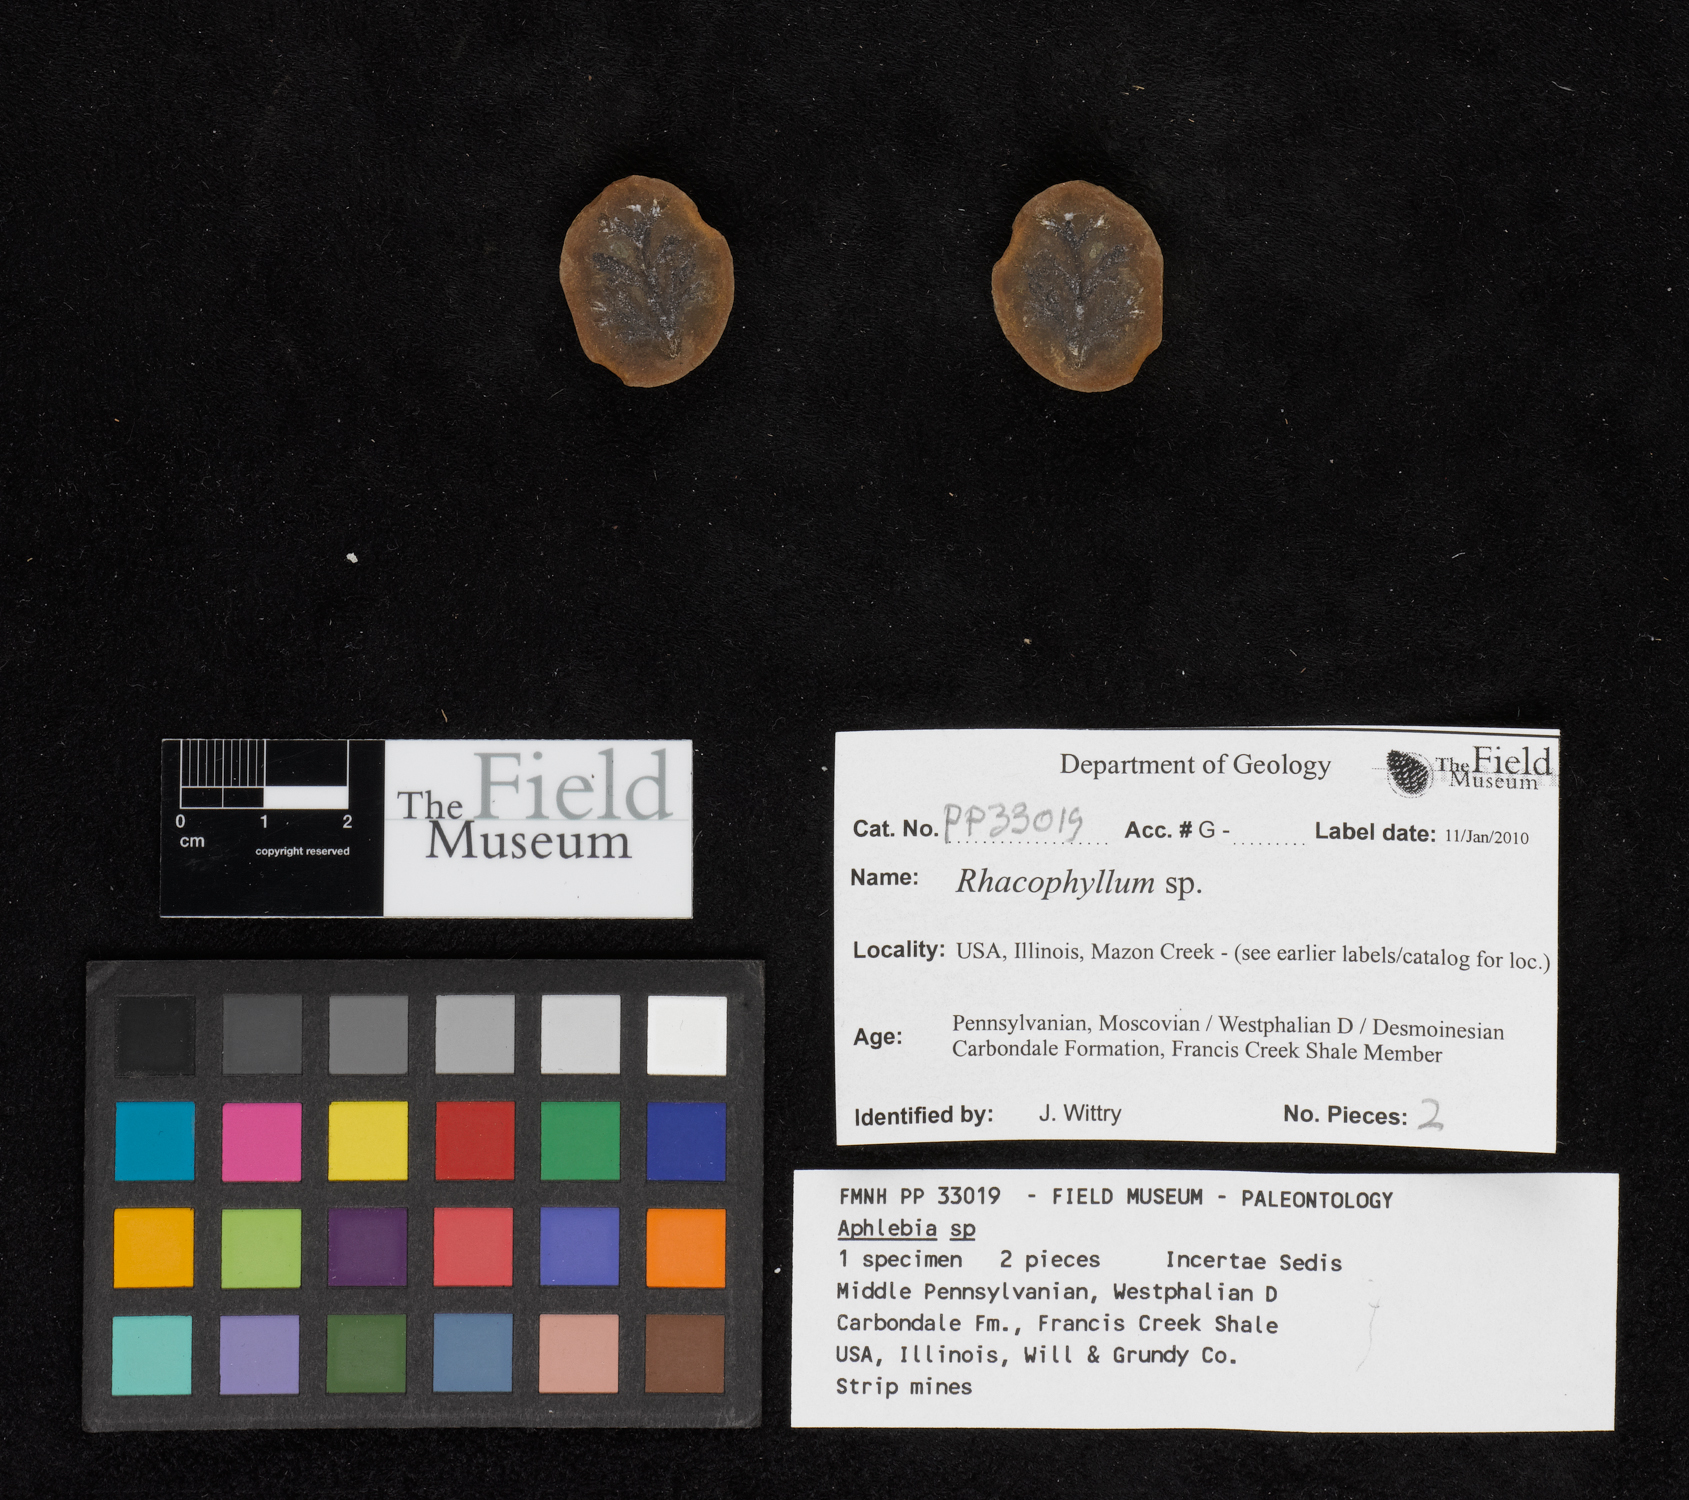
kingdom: Plantae
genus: Rhacophyllum
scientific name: Rhacophyllum
